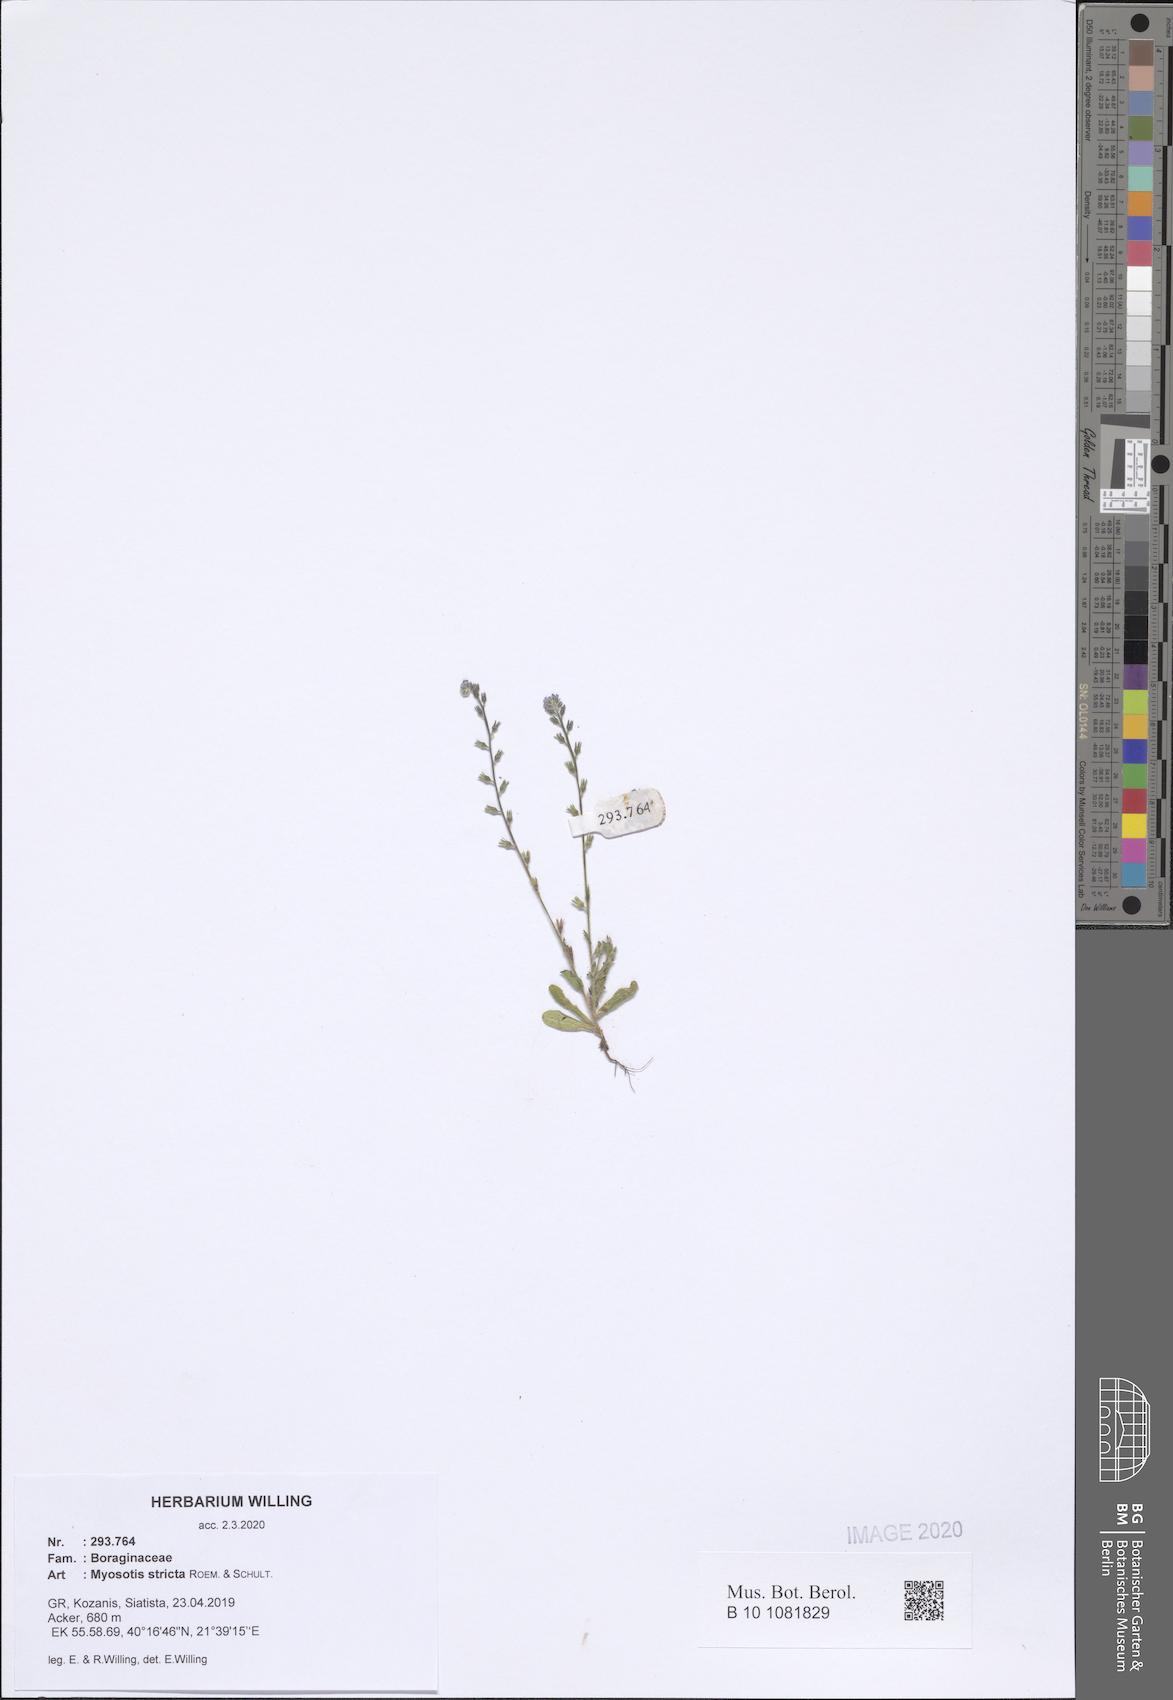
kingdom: Plantae
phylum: Tracheophyta
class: Magnoliopsida
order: Boraginales
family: Boraginaceae
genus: Myosotis
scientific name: Myosotis stricta
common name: Strict forget-me-not
